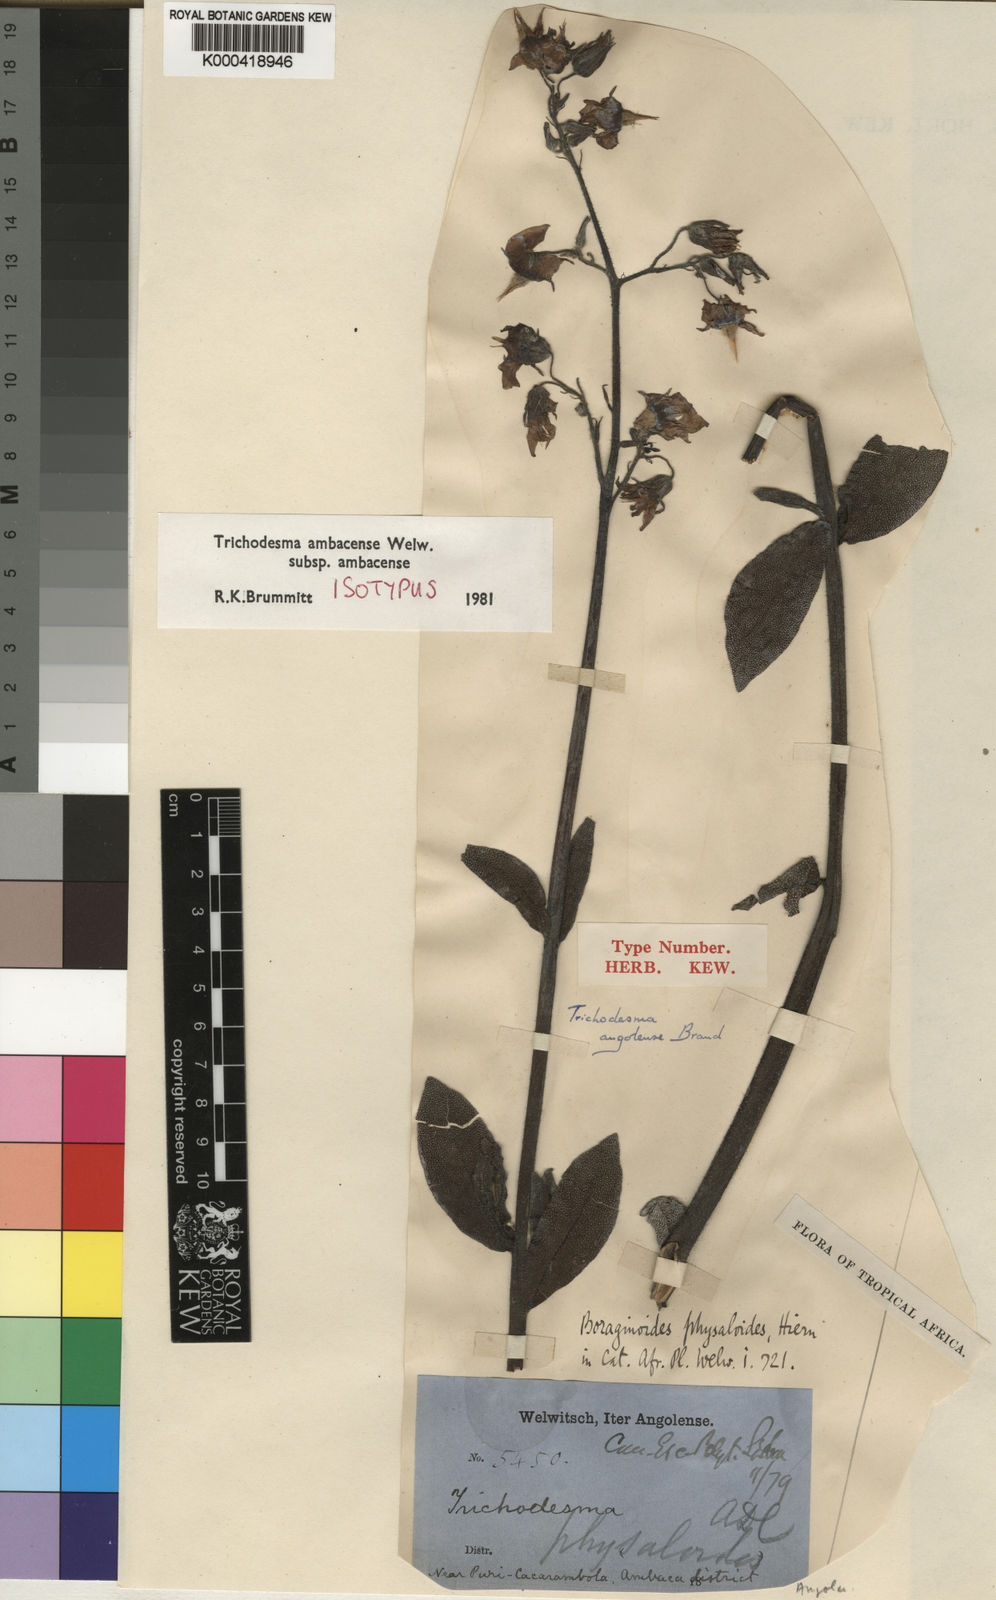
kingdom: Plantae
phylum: Tracheophyta
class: Magnoliopsida
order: Boraginales
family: Boraginaceae
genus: Trichodesma
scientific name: Trichodesma
